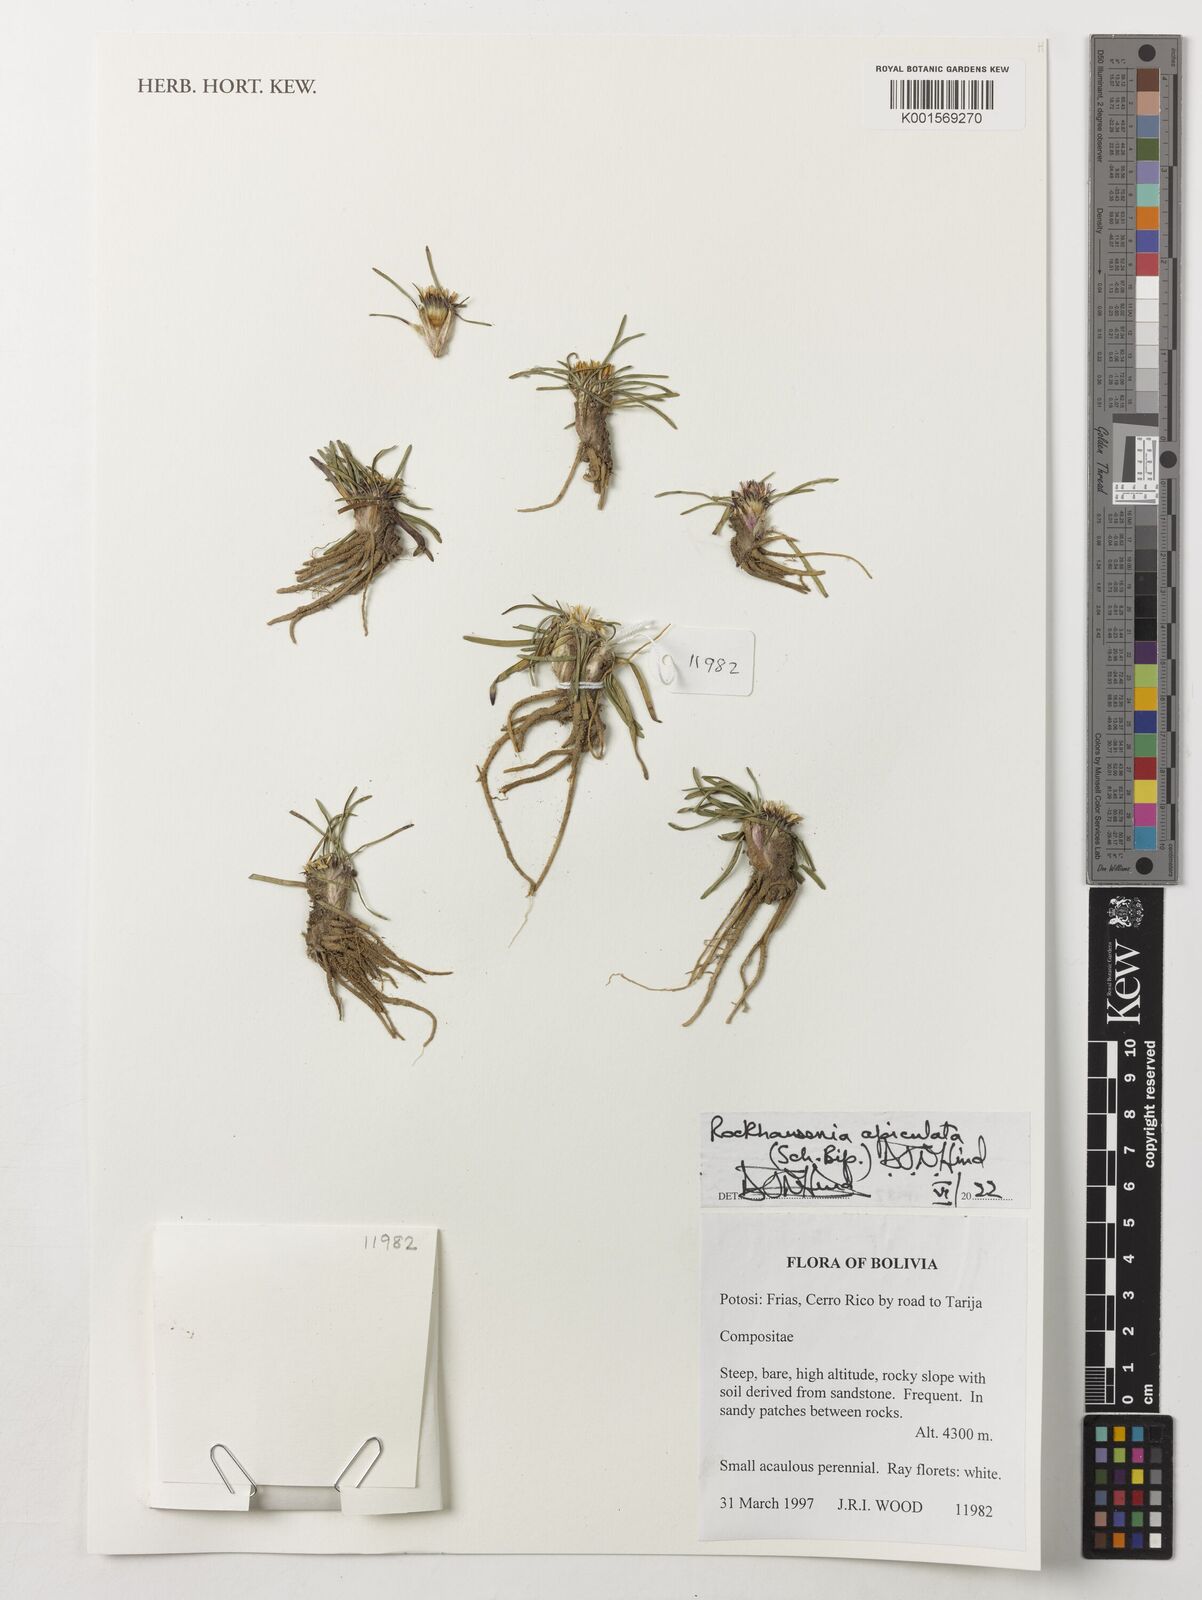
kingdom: Plantae
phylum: Tracheophyta
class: Magnoliopsida
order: Asterales
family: Asteraceae
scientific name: Asteraceae
